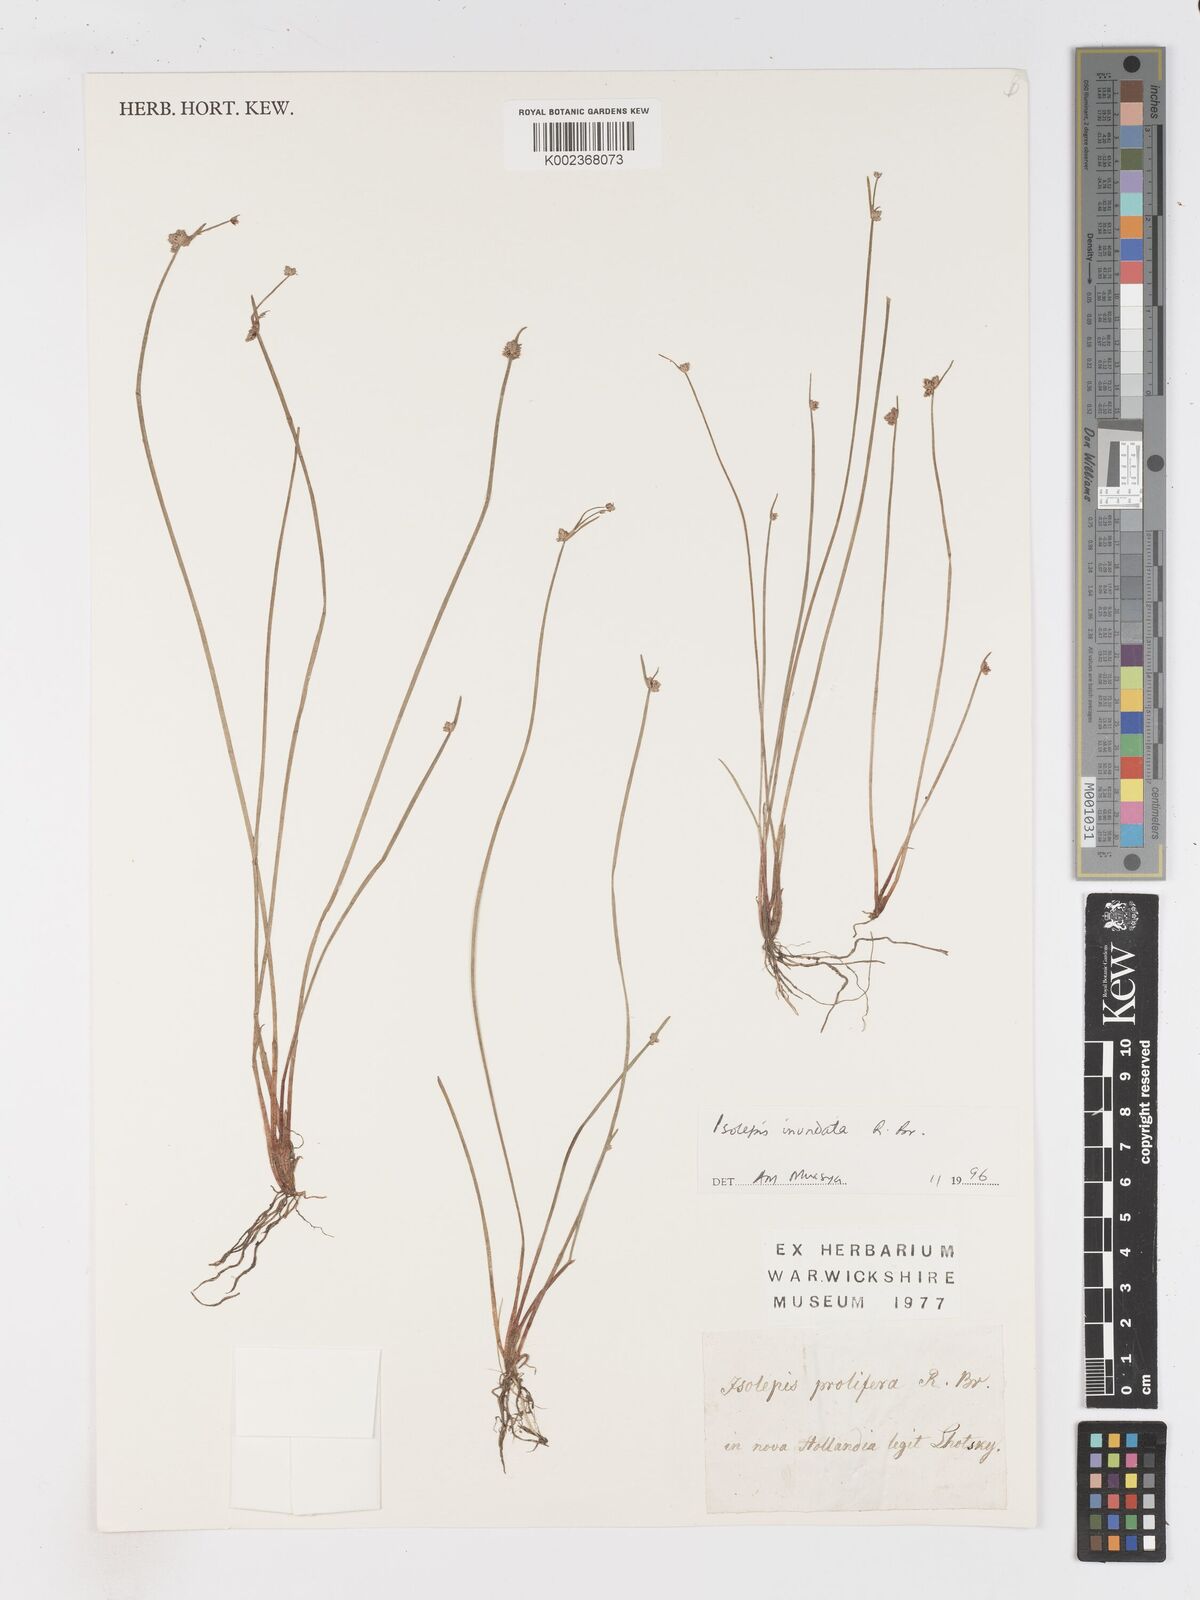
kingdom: Plantae
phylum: Tracheophyta
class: Liliopsida
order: Poales
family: Cyperaceae
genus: Isolepis
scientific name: Isolepis prolifera
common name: Proliferating bulrush
